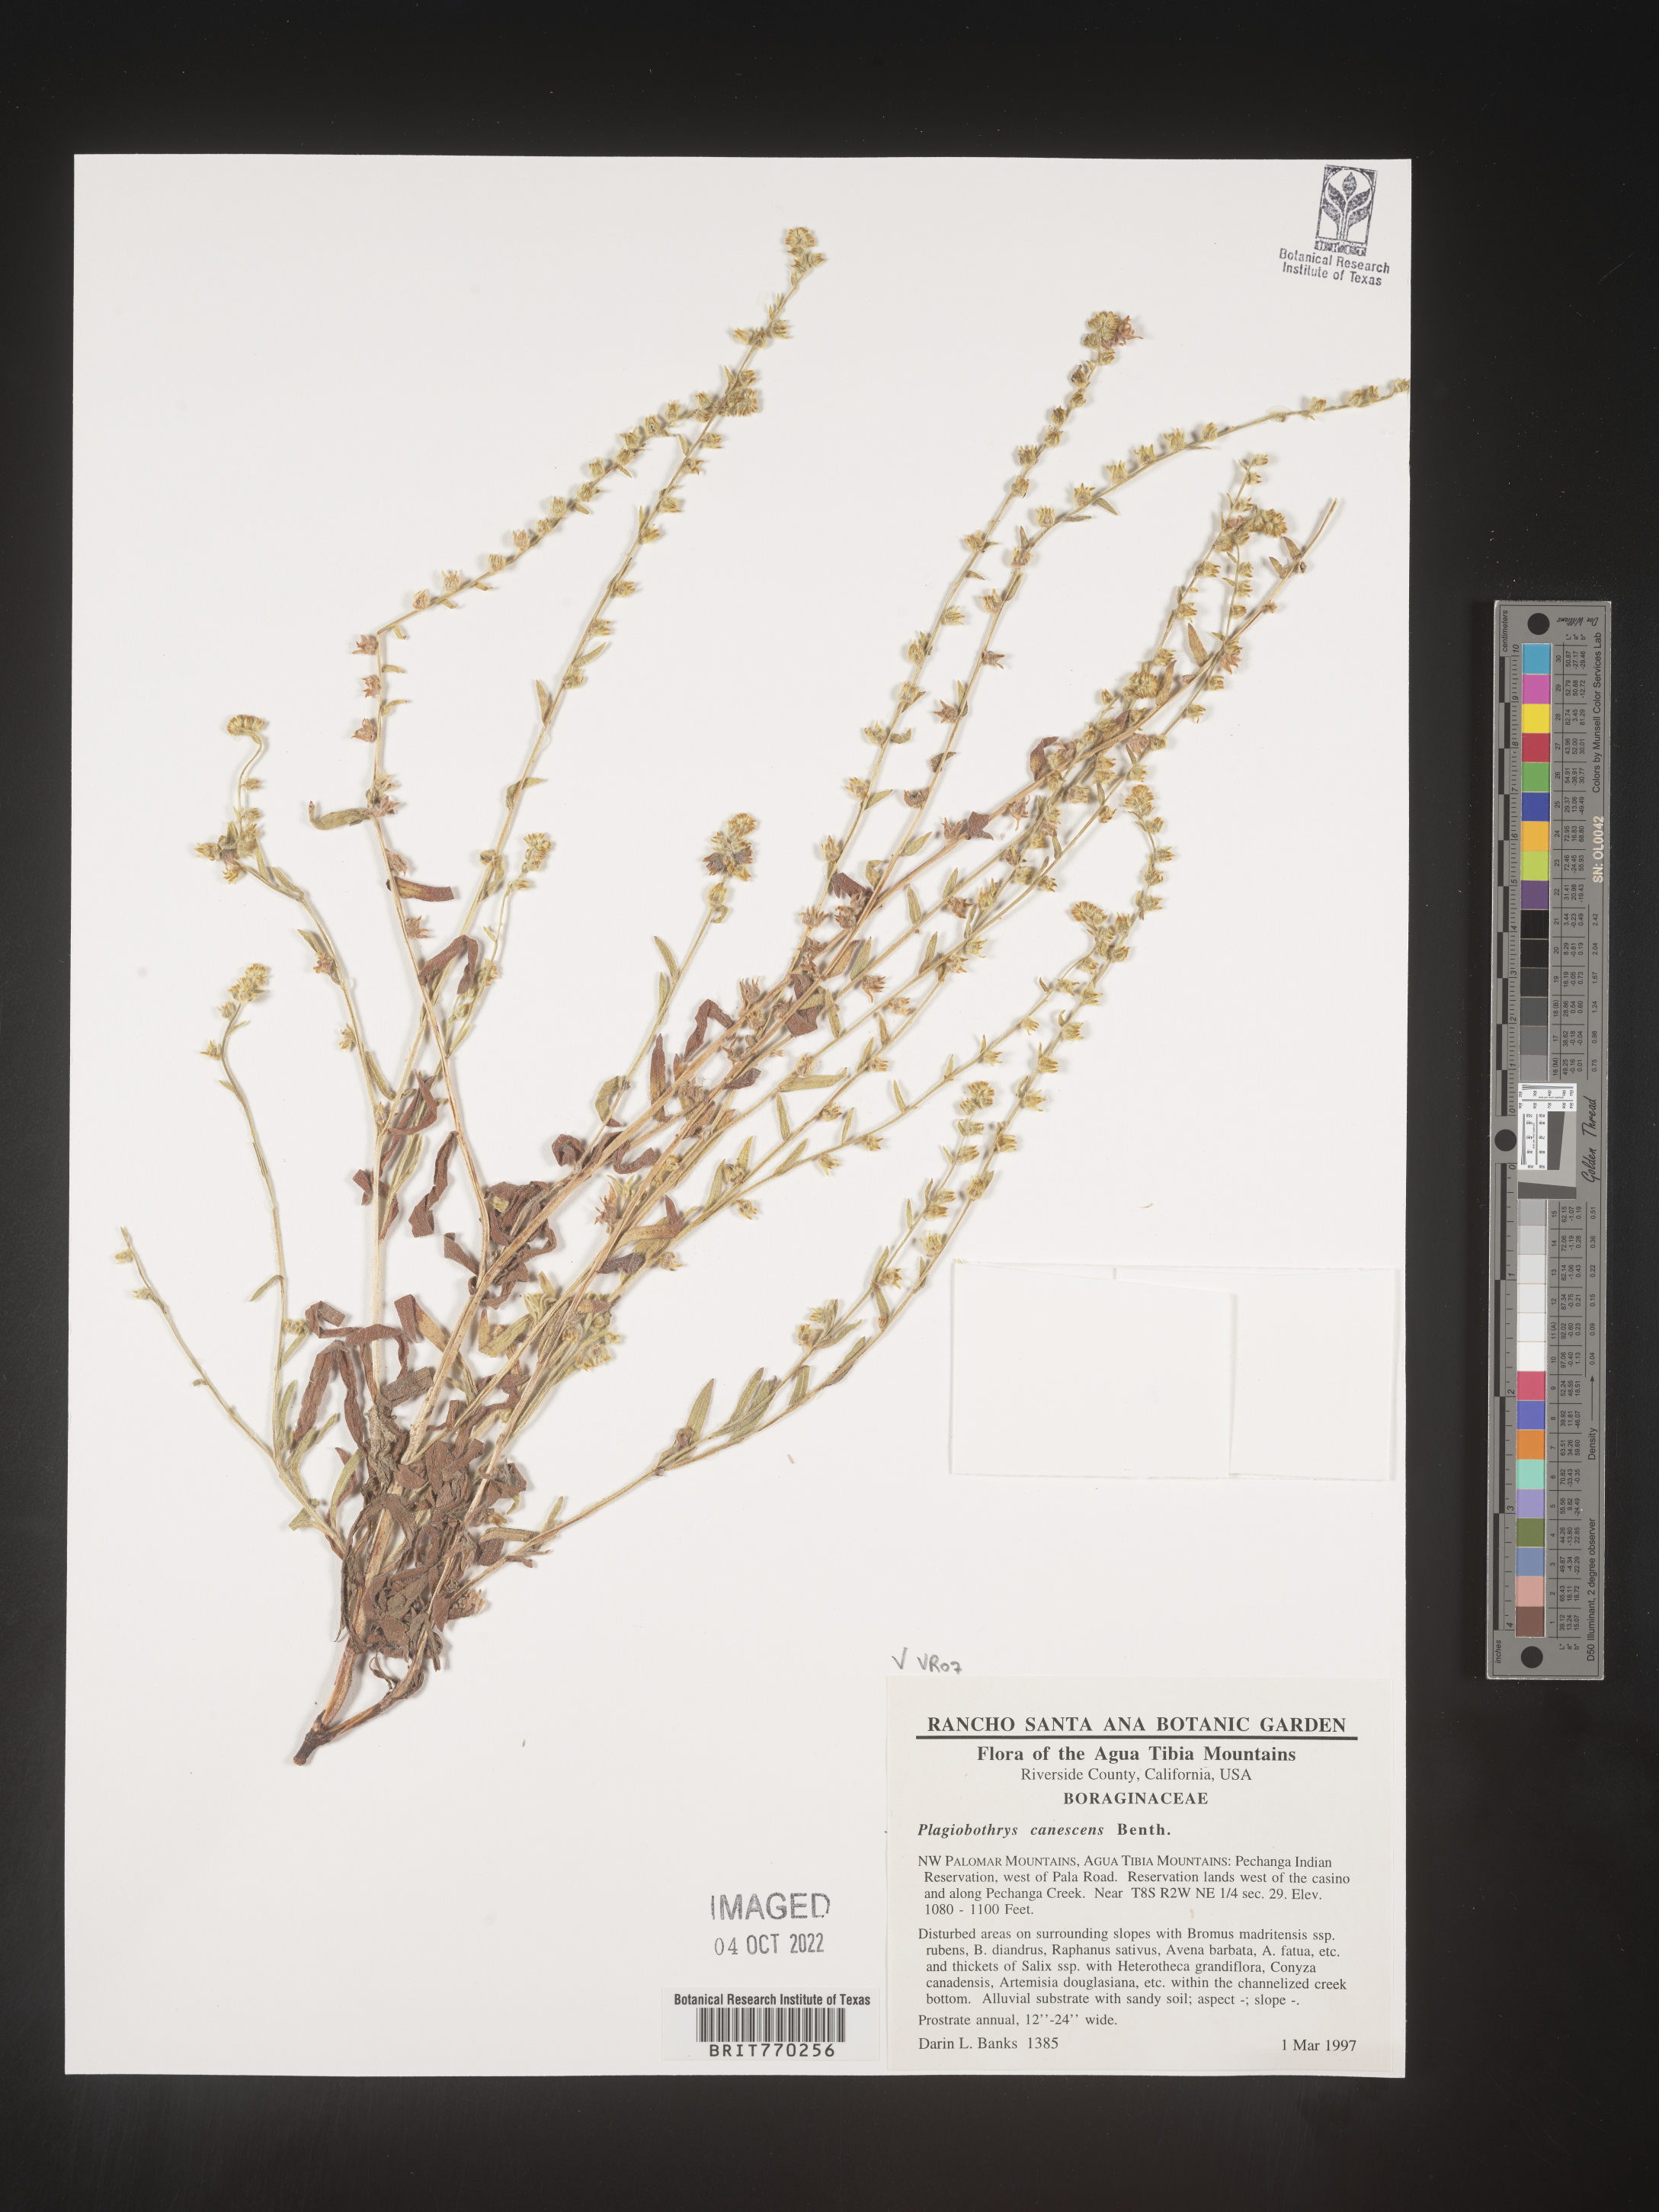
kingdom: Plantae
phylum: Tracheophyta
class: Magnoliopsida
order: Boraginales
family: Boraginaceae
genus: Plagiobothrys
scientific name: Plagiobothrys
